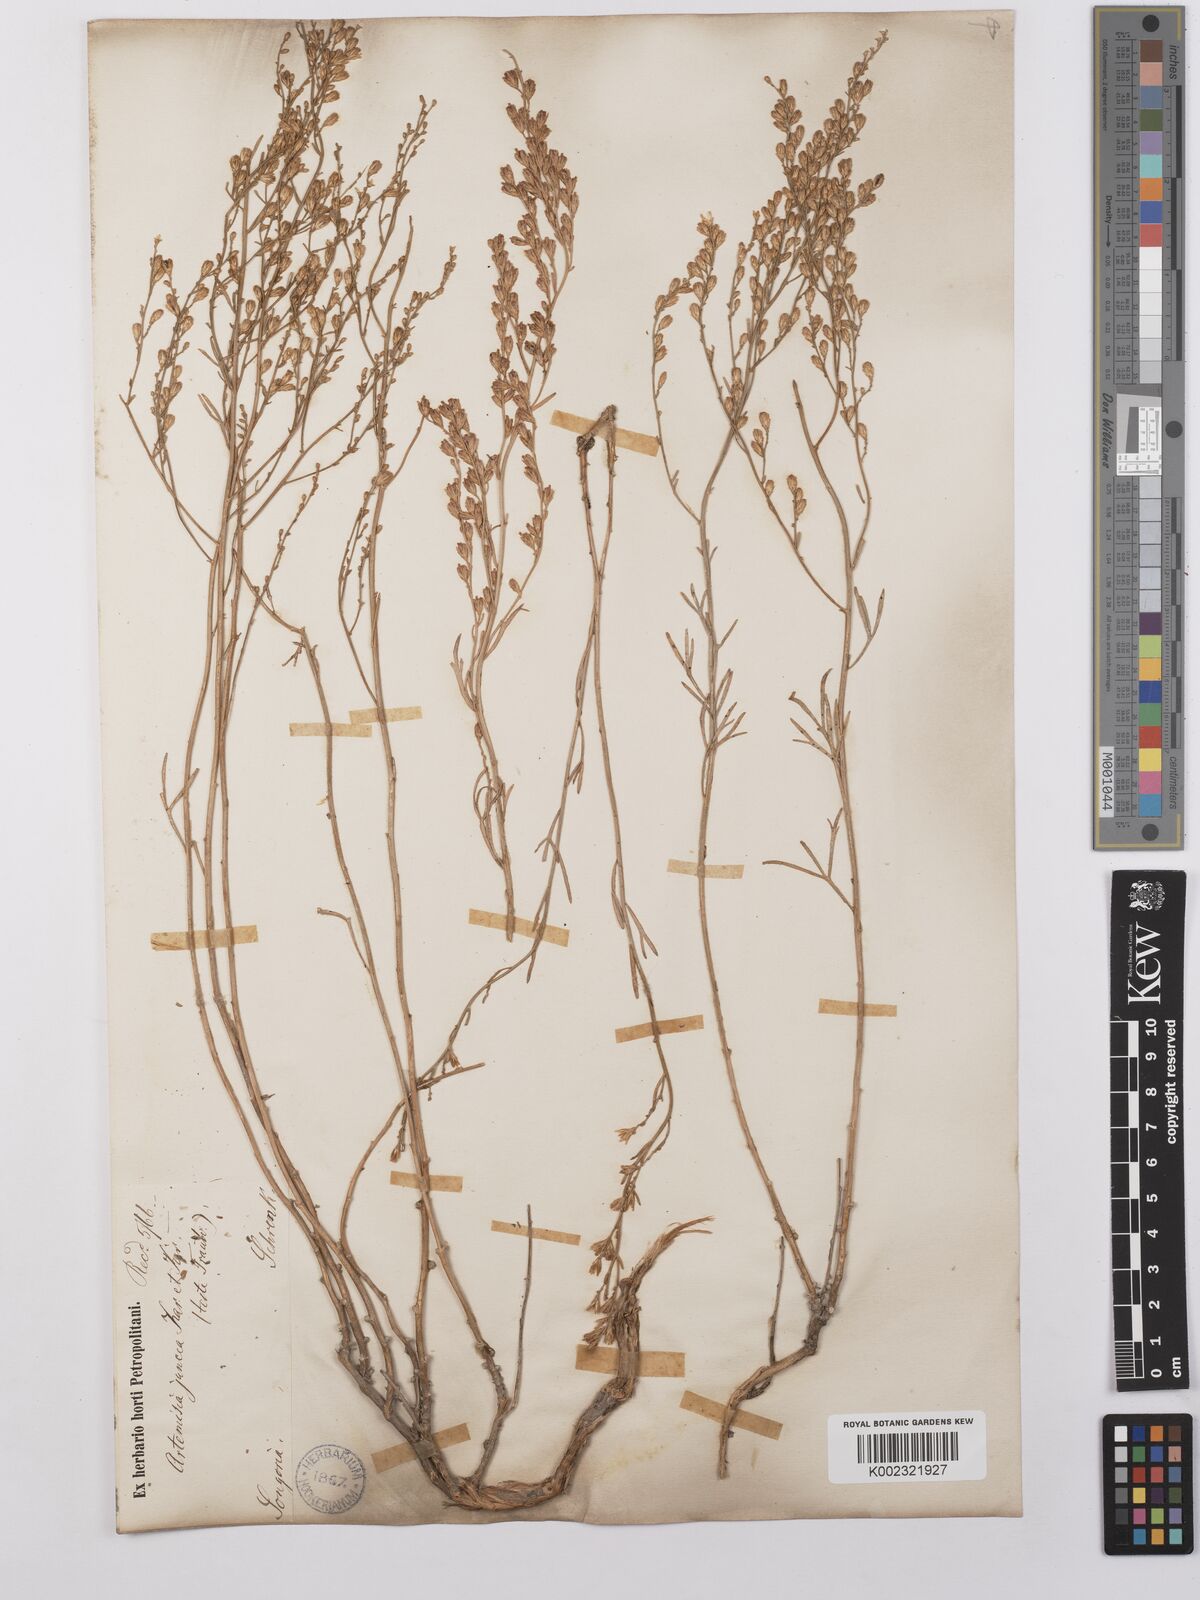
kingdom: Plantae
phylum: Tracheophyta
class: Magnoliopsida
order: Asterales
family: Asteraceae
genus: Artemisia
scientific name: Artemisia juncea
